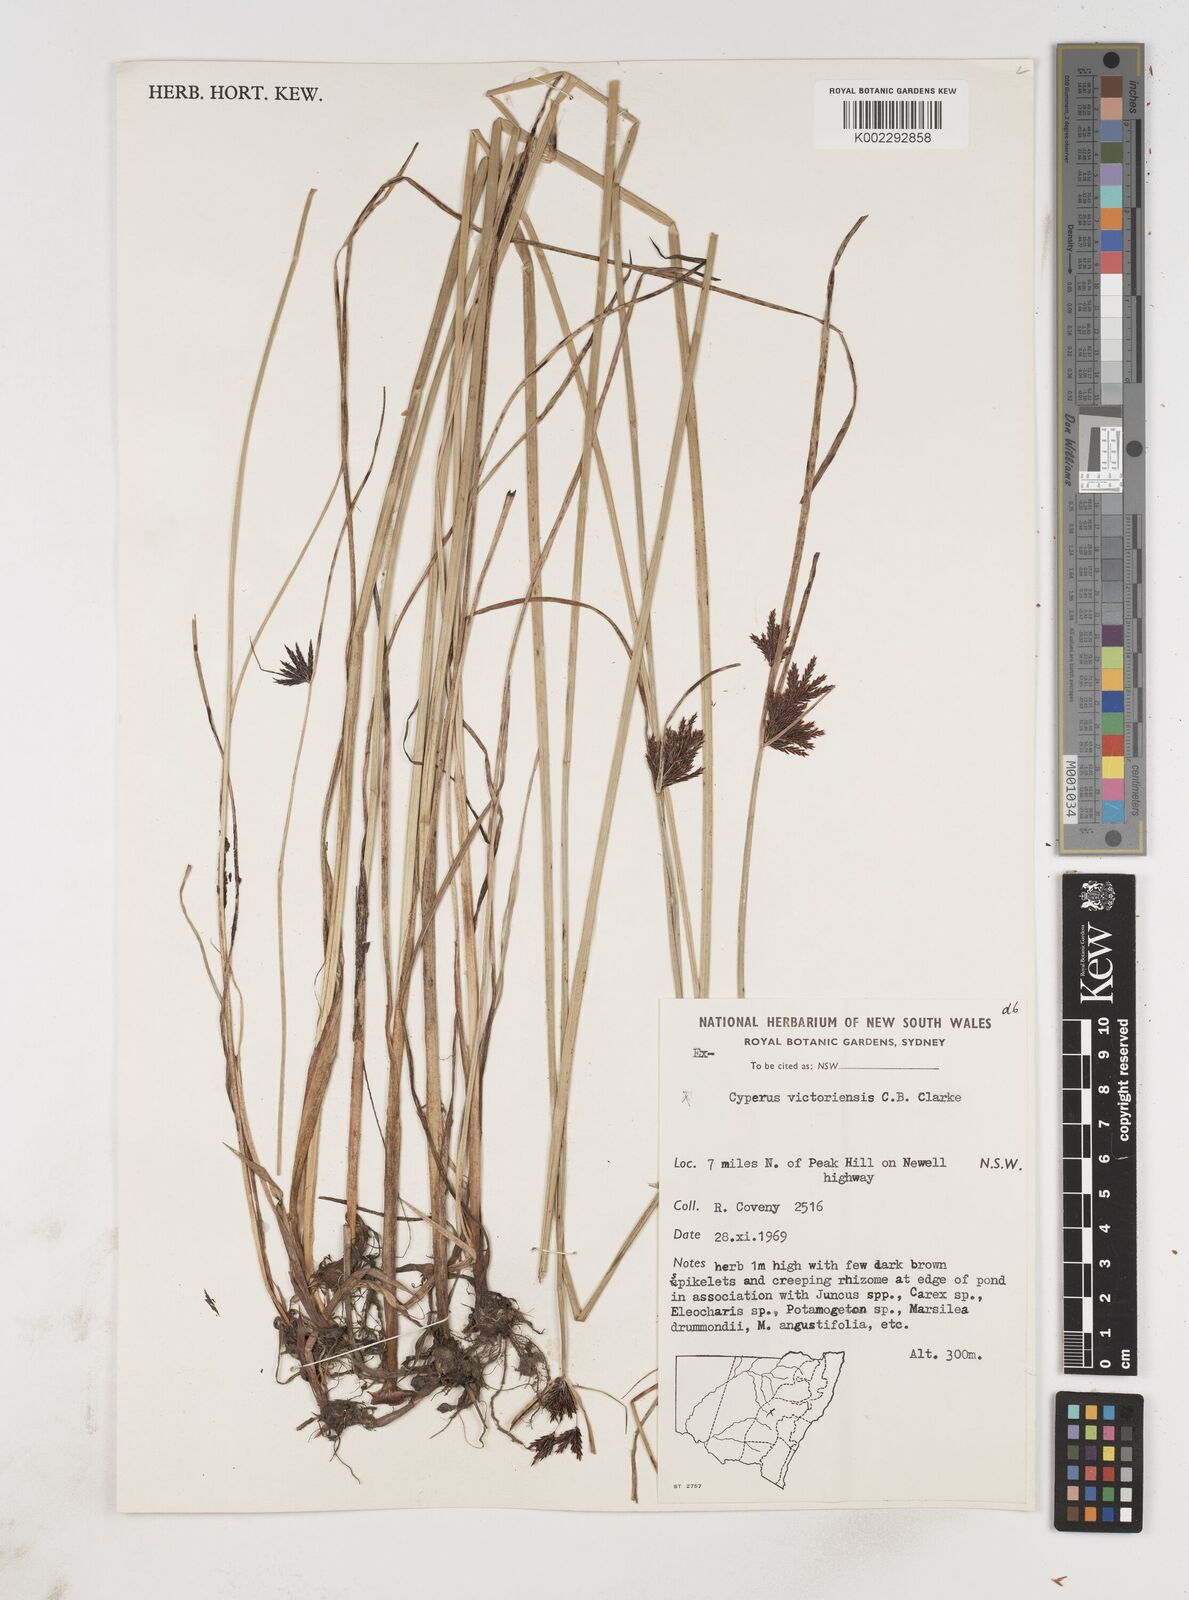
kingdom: Plantae
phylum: Tracheophyta
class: Liliopsida
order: Poales
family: Cyperaceae
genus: Cyperus
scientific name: Cyperus victoriensis
